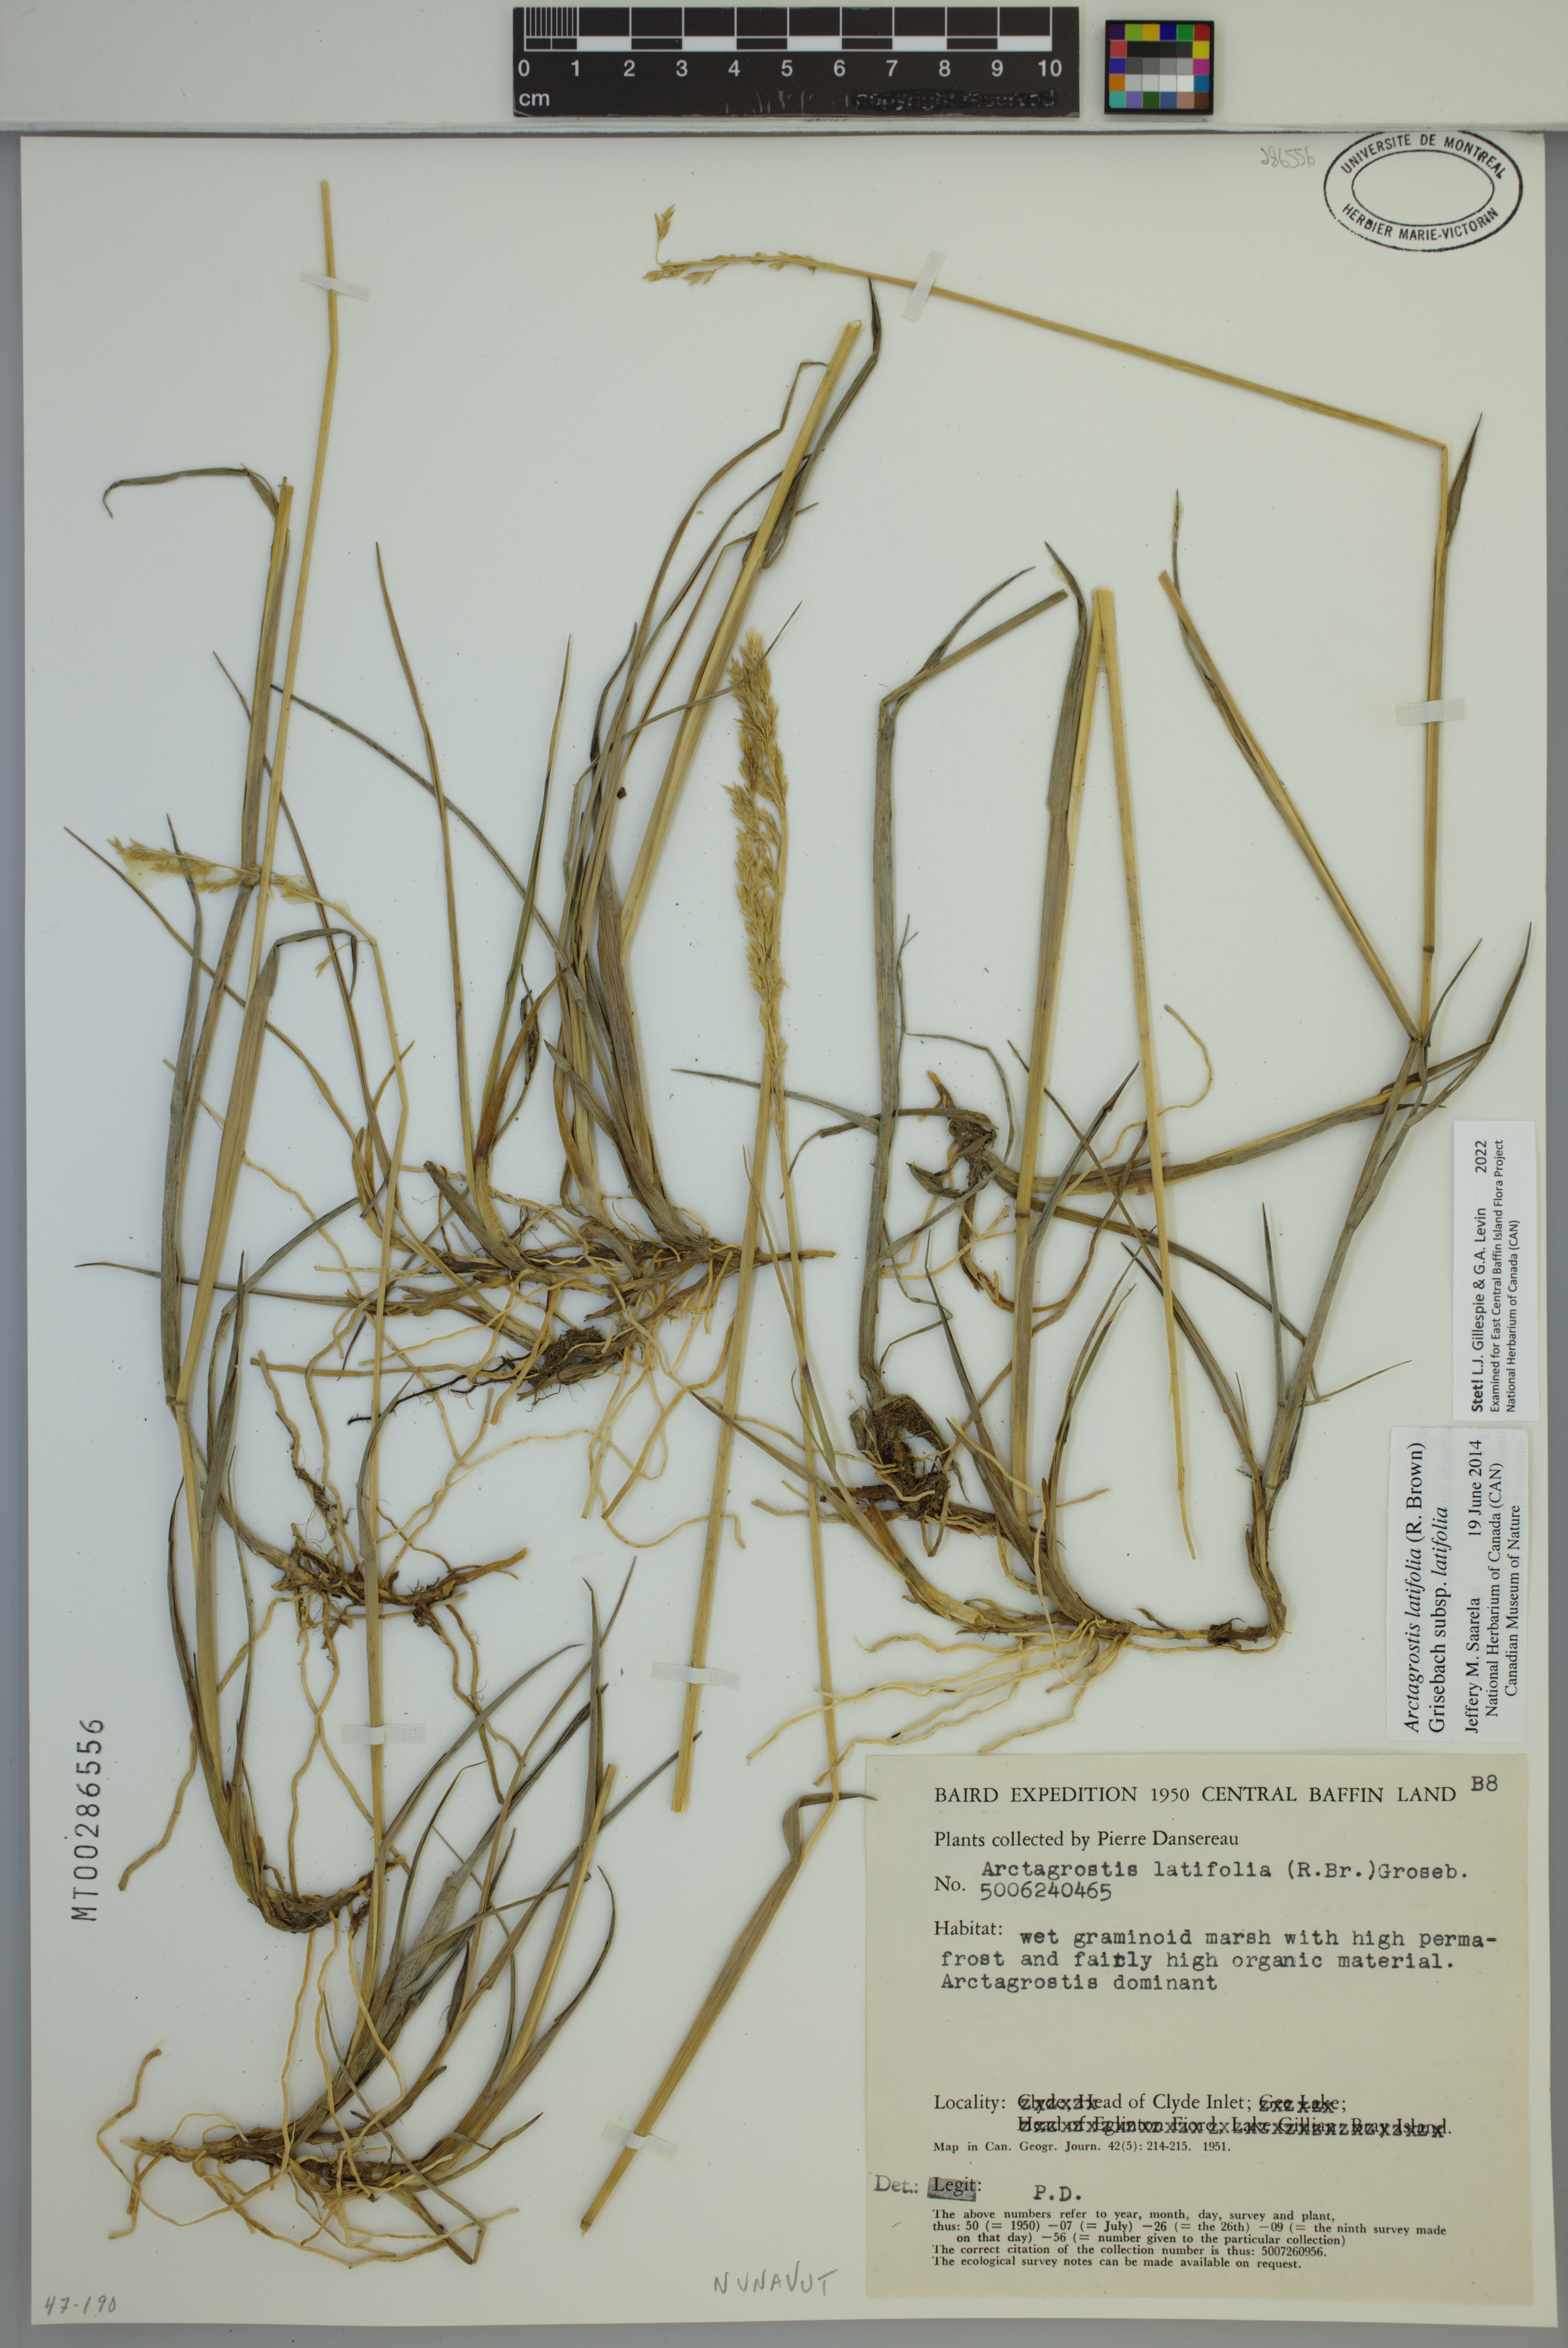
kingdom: Plantae
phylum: Tracheophyta
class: Liliopsida
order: Poales
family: Poaceae
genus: Arctagrostis
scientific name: Arctagrostis latifolia
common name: Arctic grass
